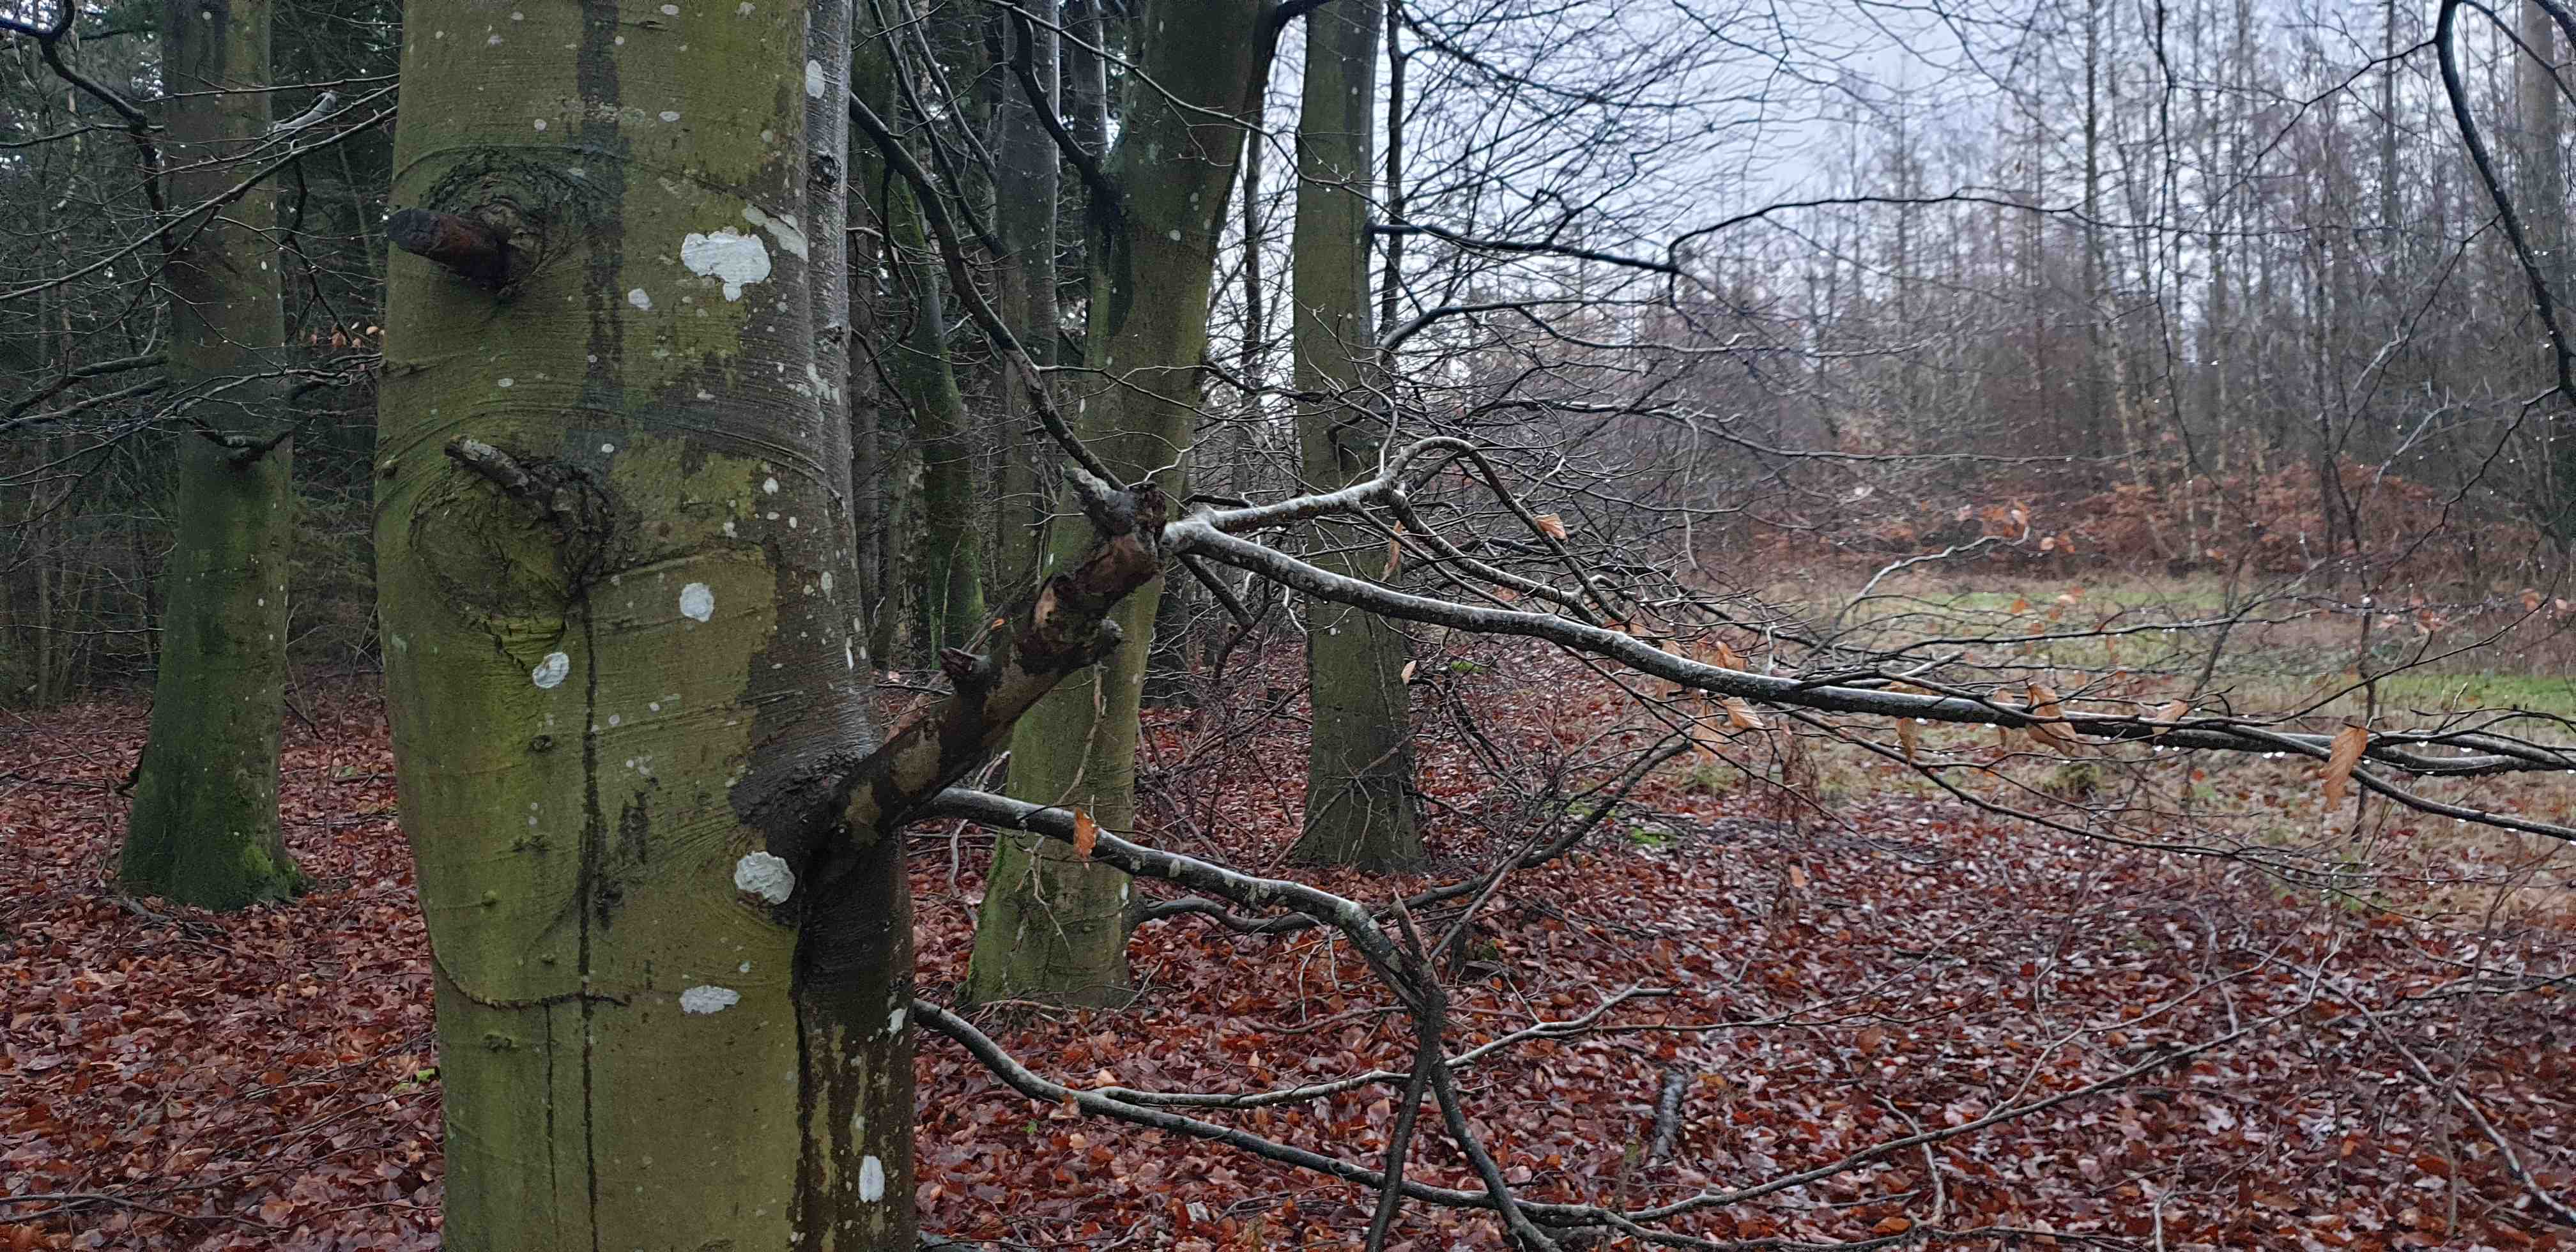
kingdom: Fungi
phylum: Ascomycota
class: Lecanoromycetes
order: Ostropales
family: Phlyctidaceae
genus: Phlyctis
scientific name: Phlyctis argena
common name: almindelig sølvlav
